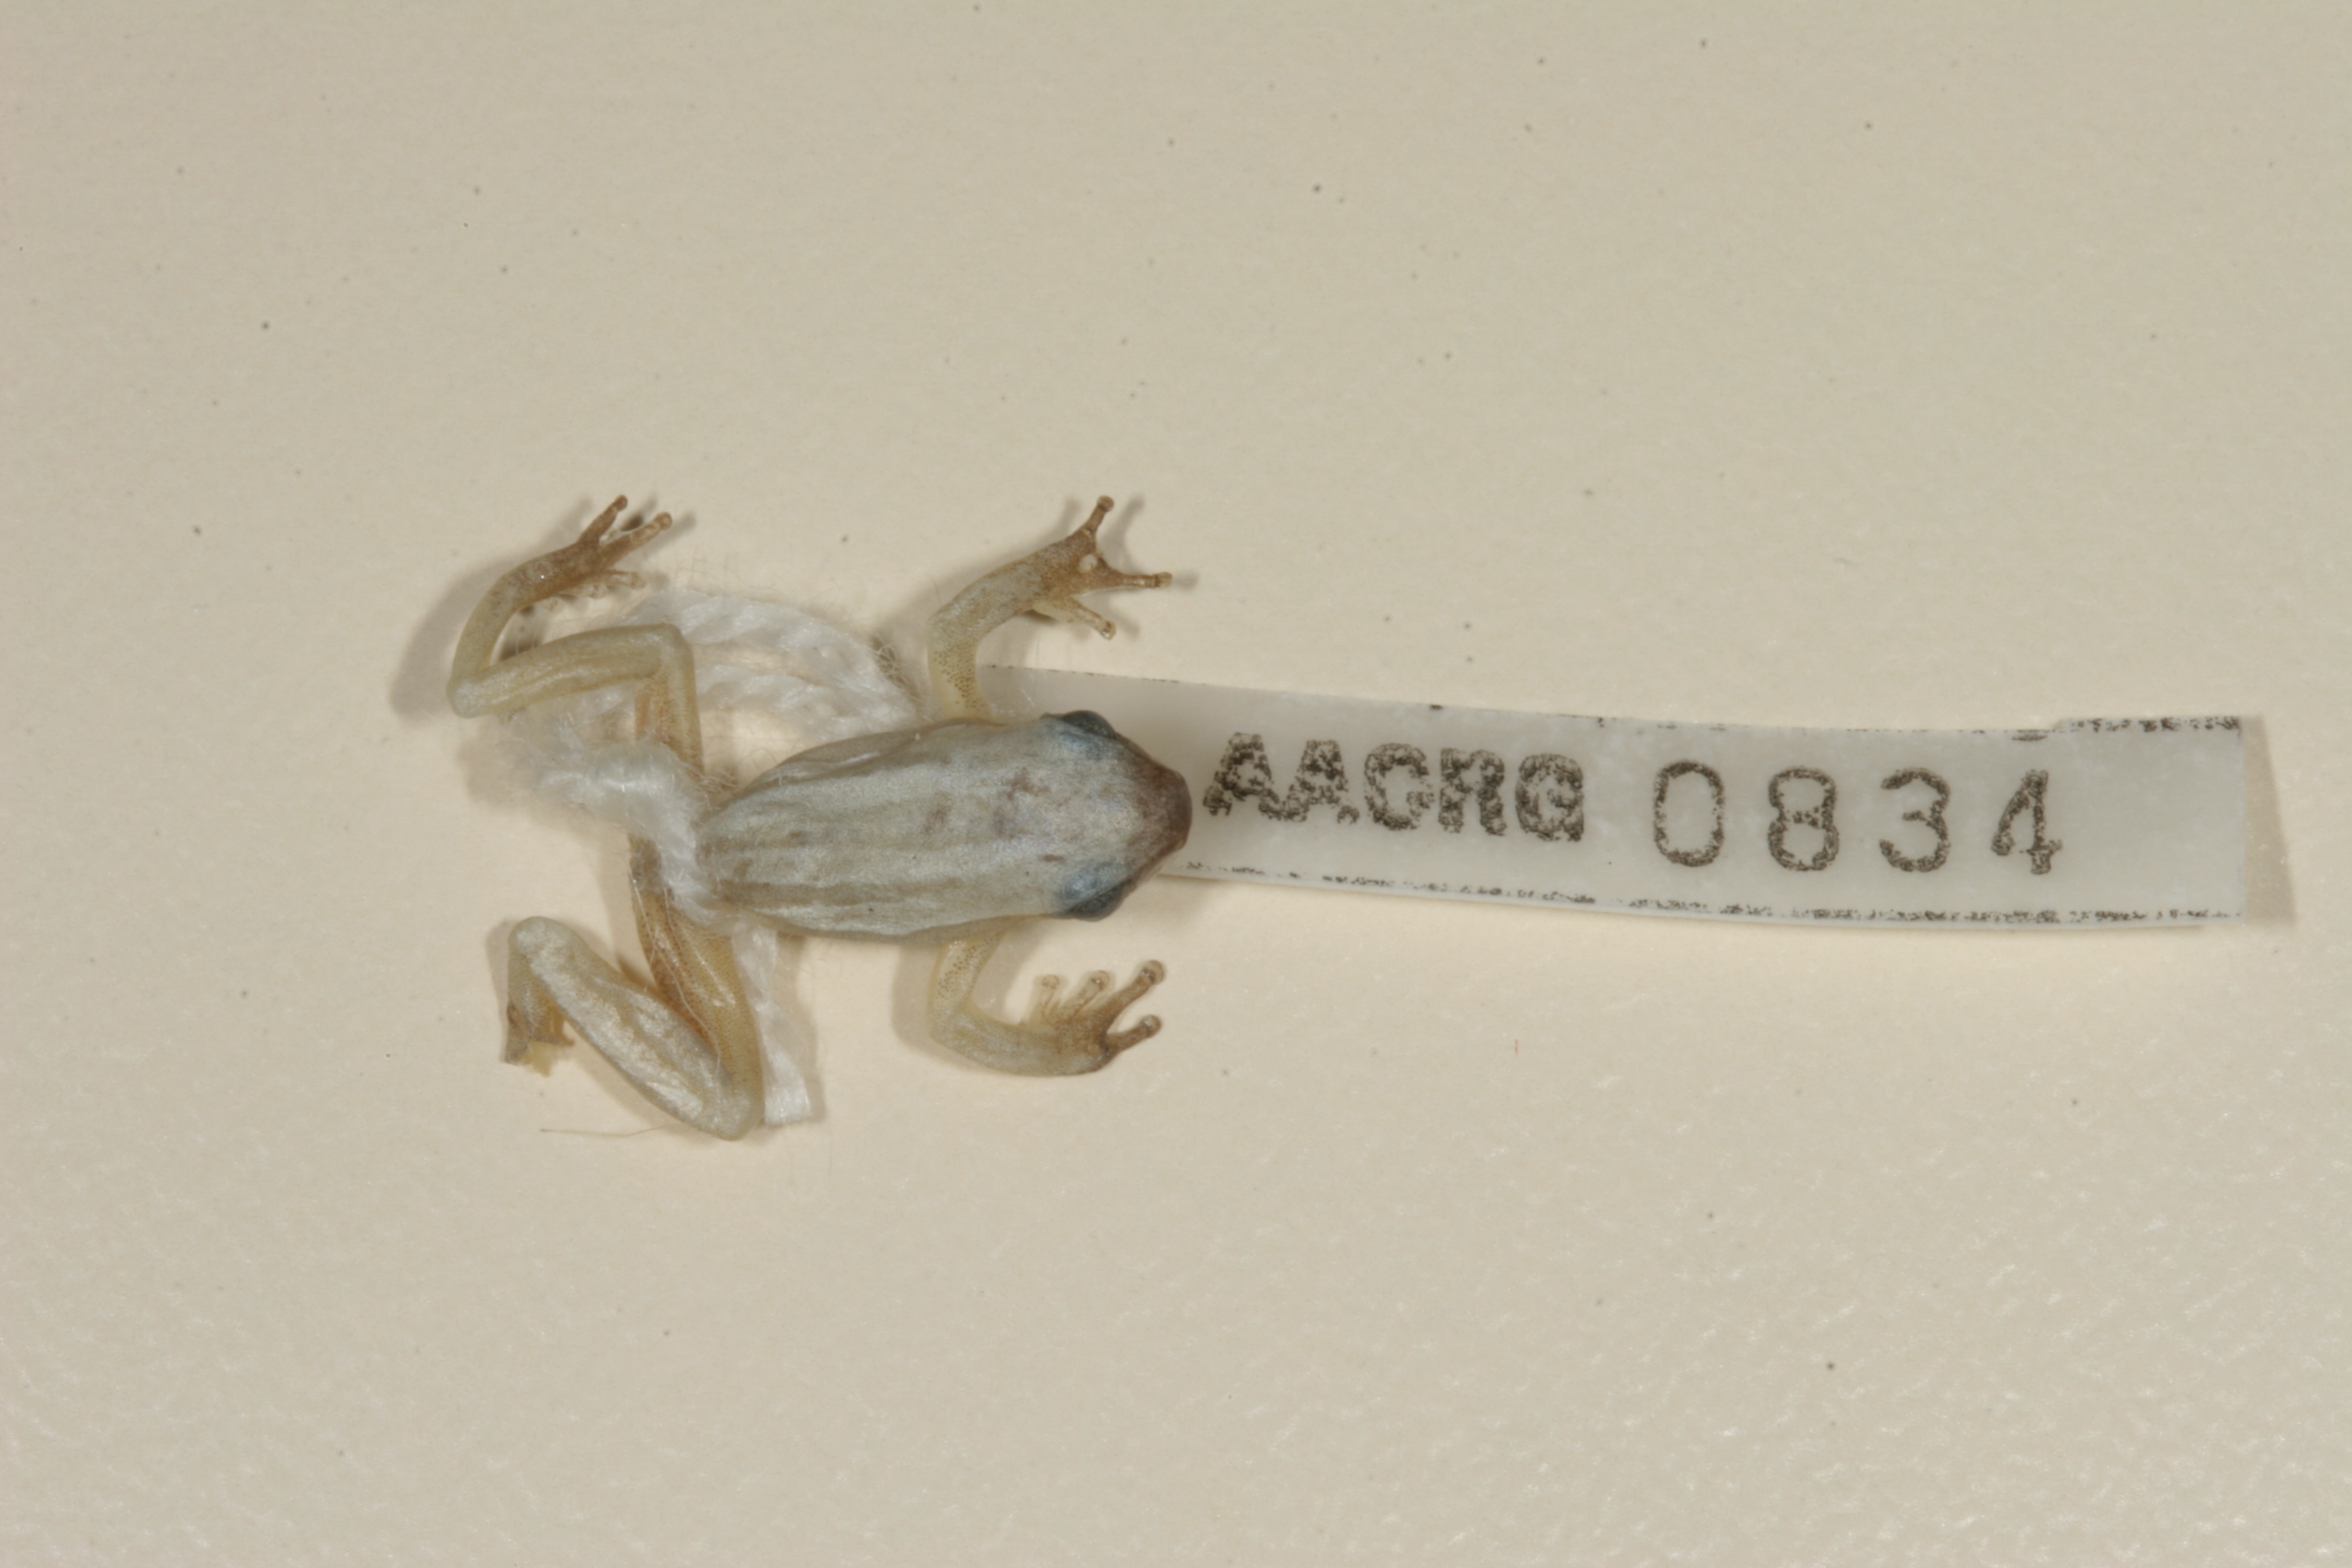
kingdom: Animalia
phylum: Chordata
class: Amphibia
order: Anura
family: Hyperoliidae
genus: Hyperolius
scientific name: Hyperolius marmoratus
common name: Painted reed frog
